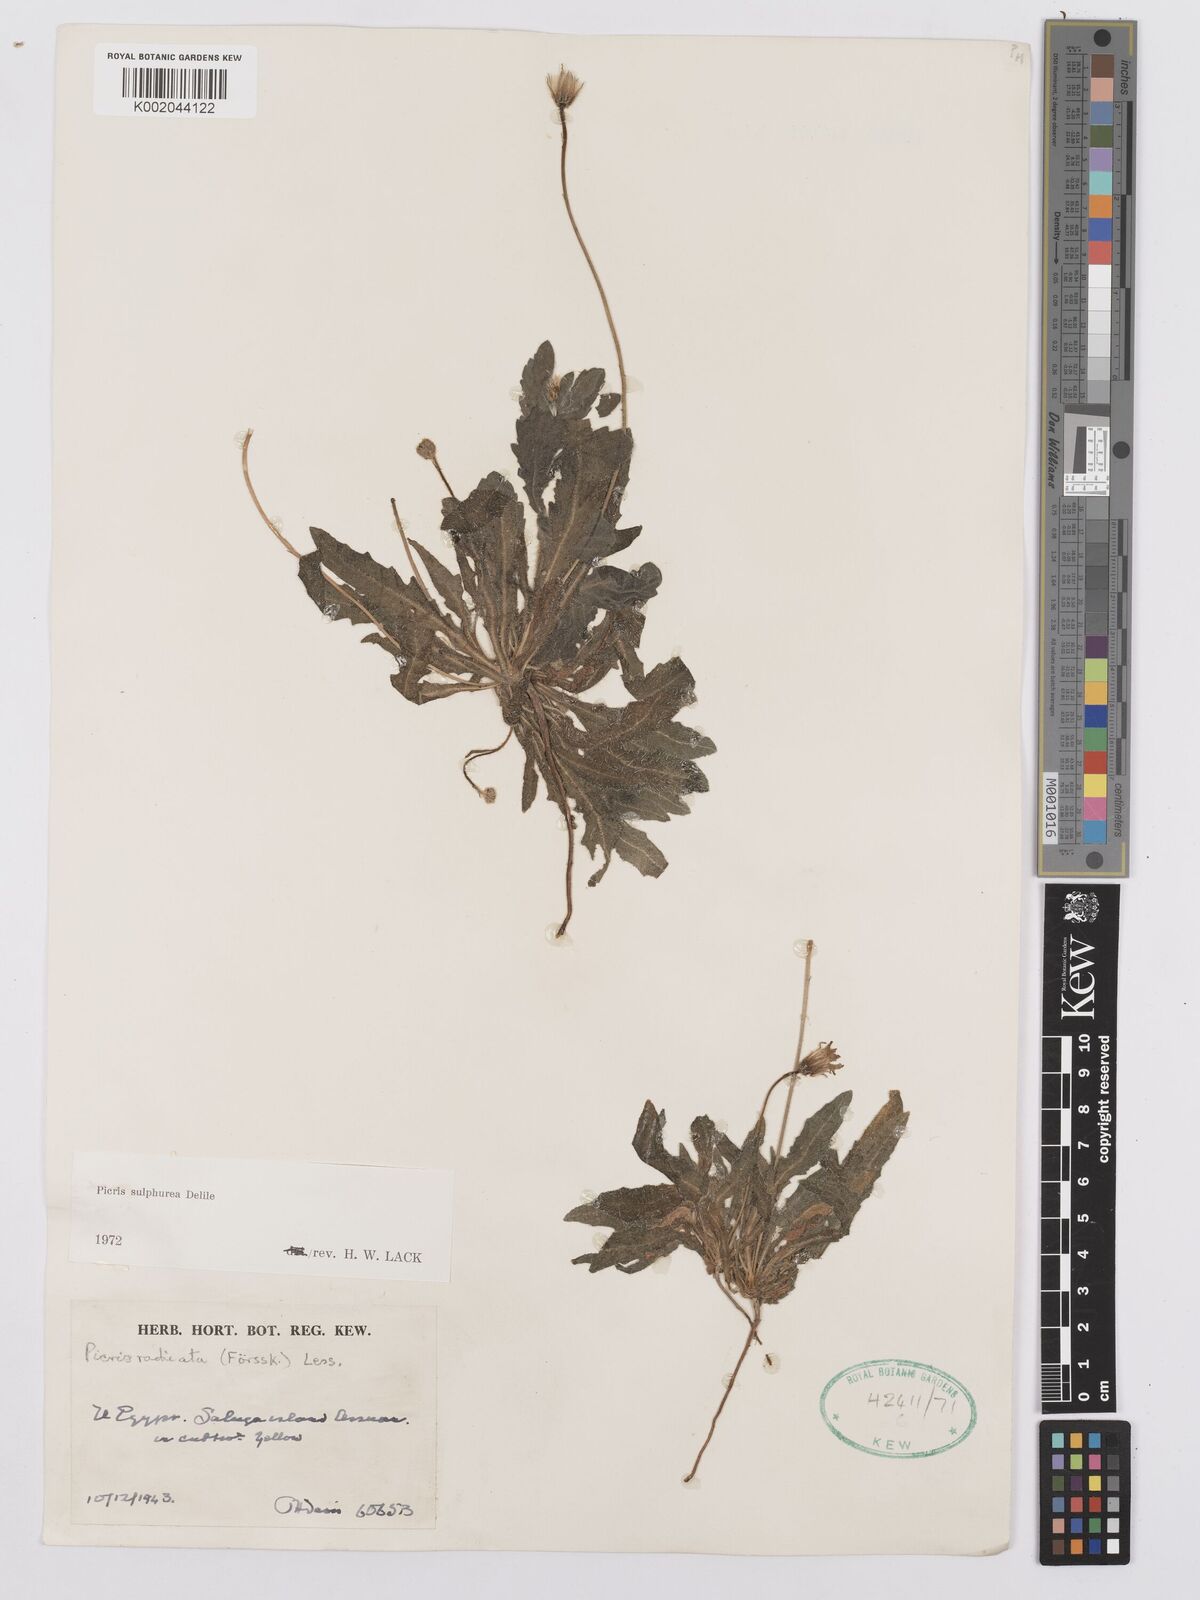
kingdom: Plantae
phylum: Tracheophyta
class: Magnoliopsida
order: Asterales
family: Asteraceae
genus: Picris
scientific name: Picris sulphurea
